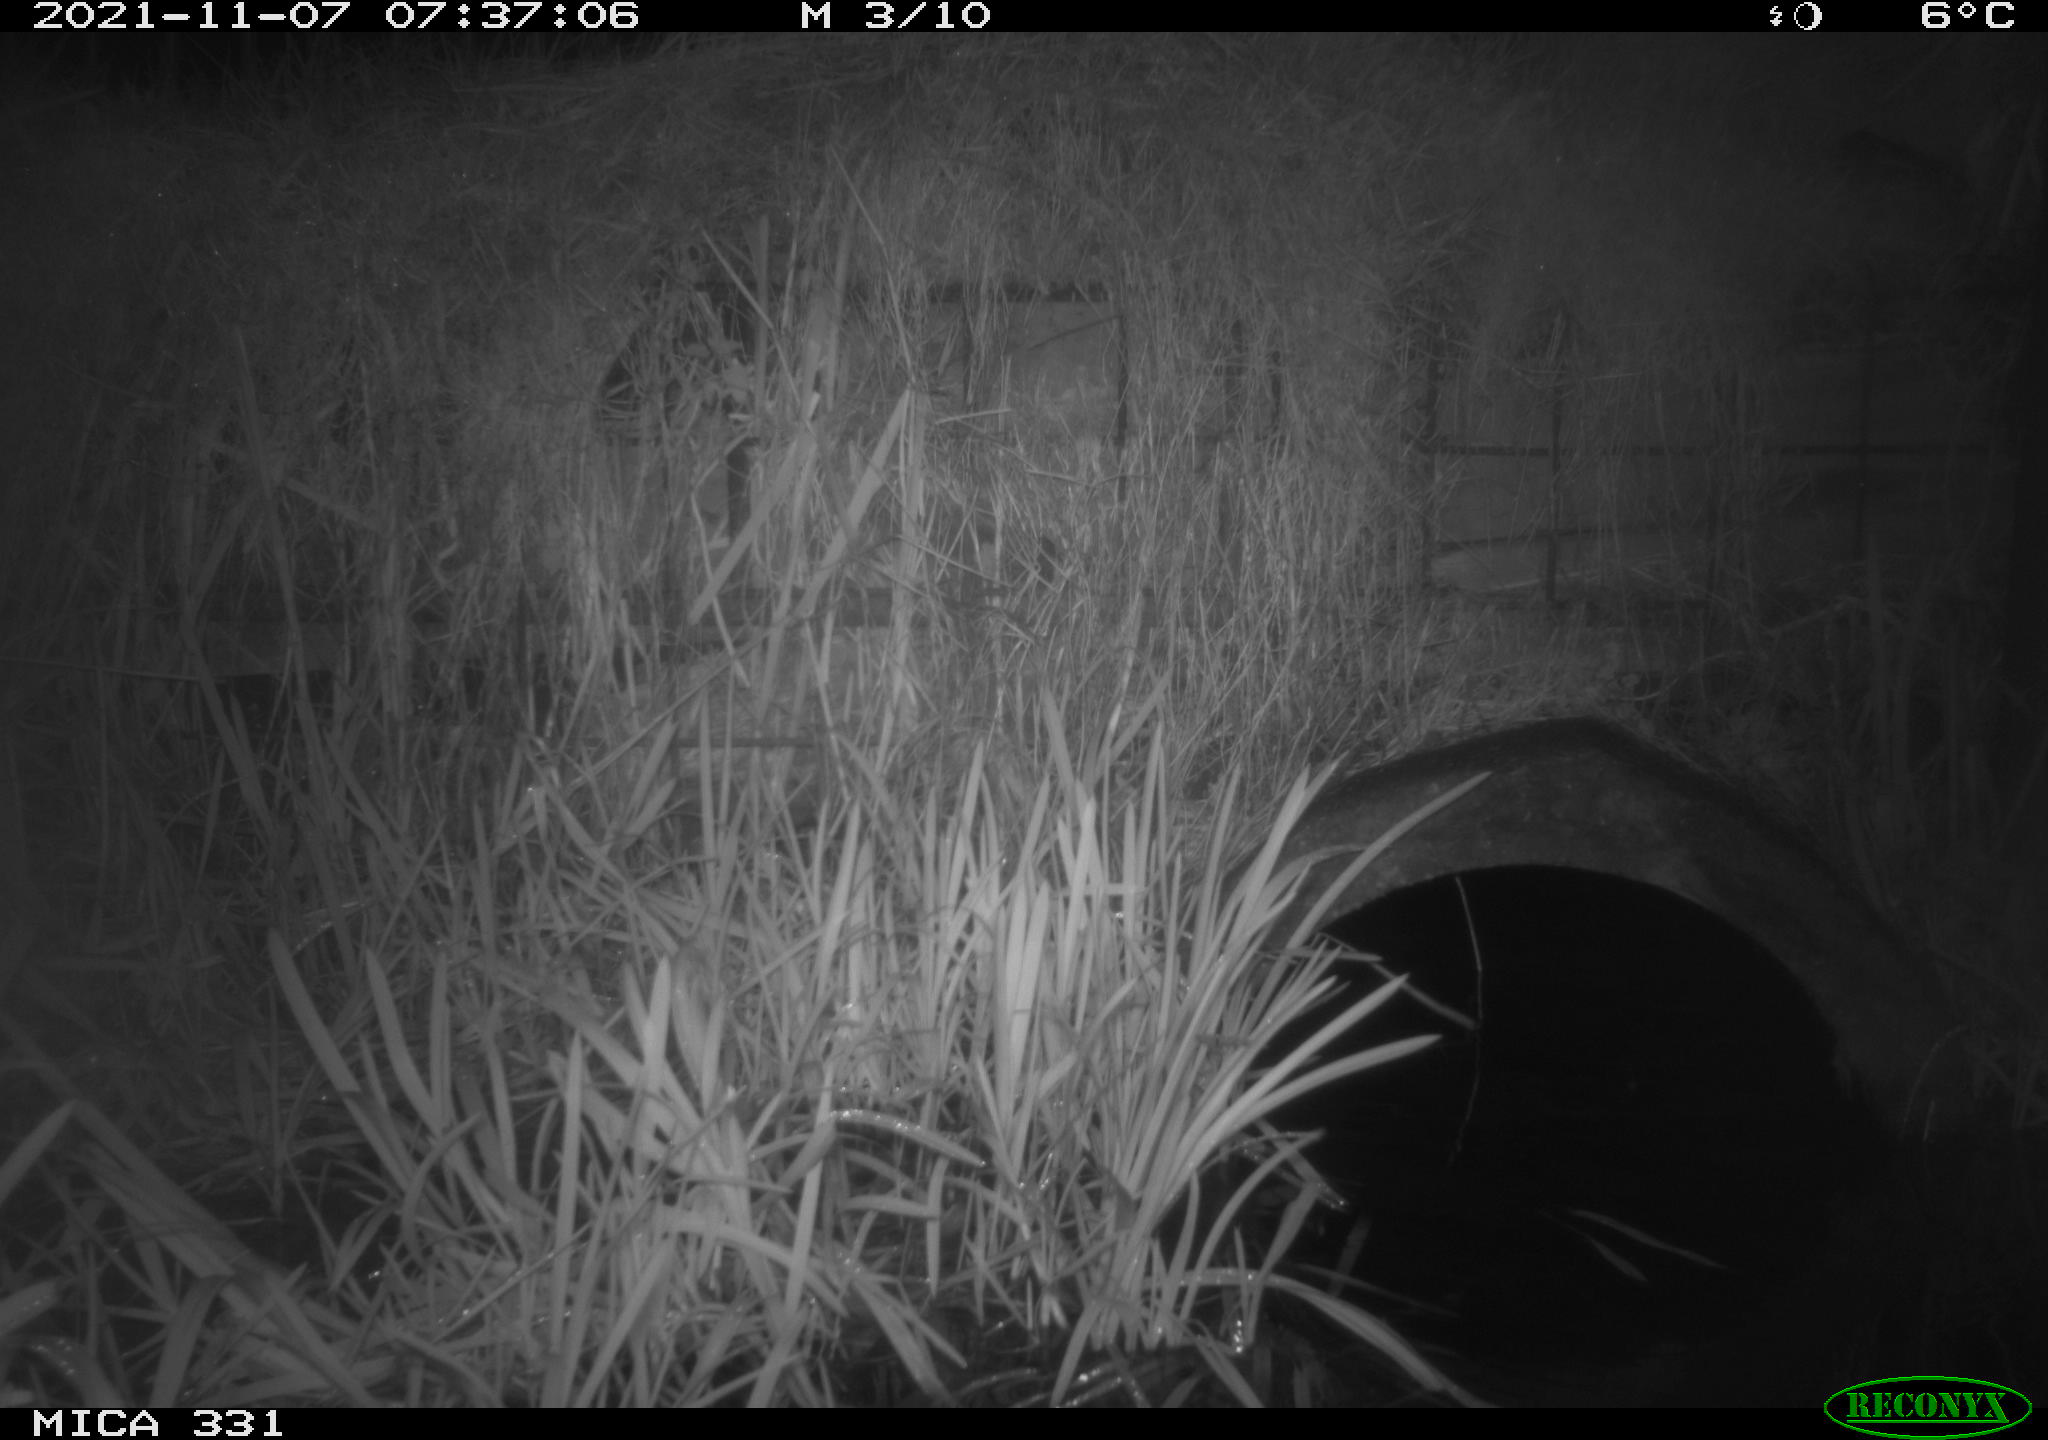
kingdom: Animalia
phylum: Chordata
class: Mammalia
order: Rodentia
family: Muridae
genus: Rattus
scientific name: Rattus norvegicus
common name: Brown rat
